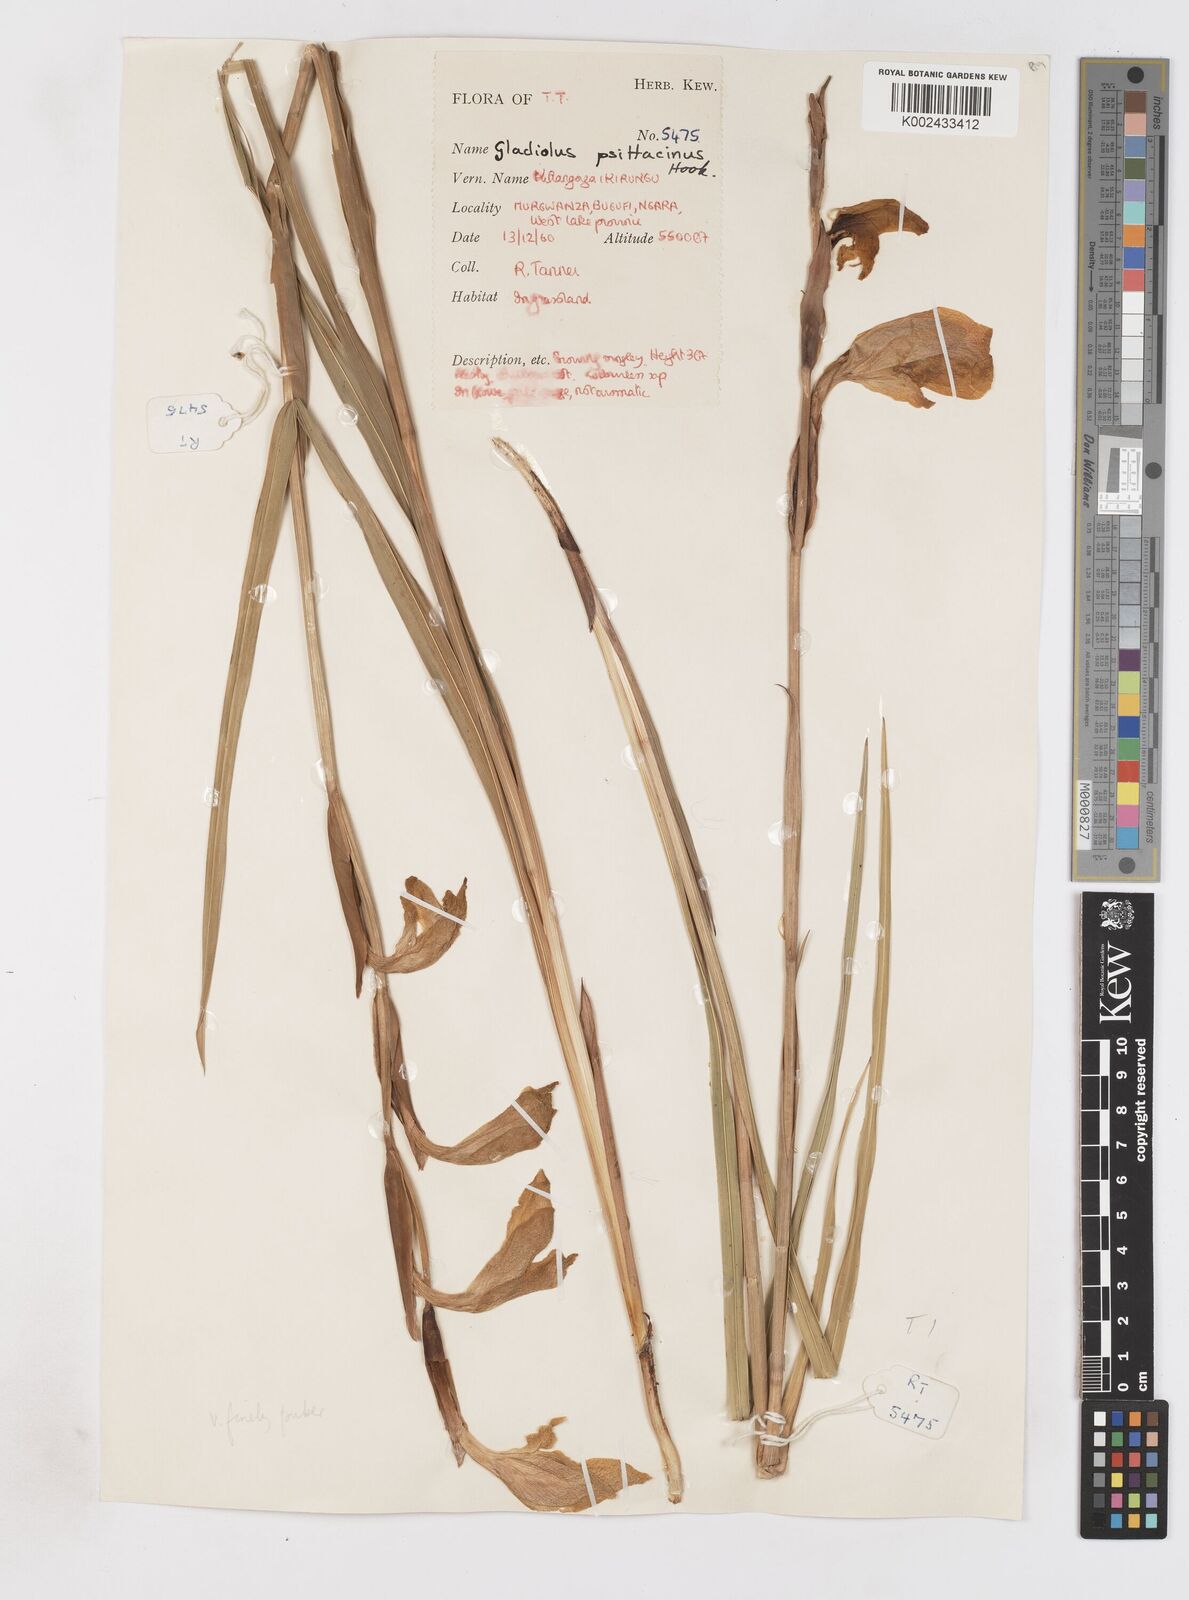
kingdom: Plantae
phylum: Tracheophyta
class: Liliopsida
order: Asparagales
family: Iridaceae
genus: Gladiolus
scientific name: Gladiolus dalenii
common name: Cornflag
